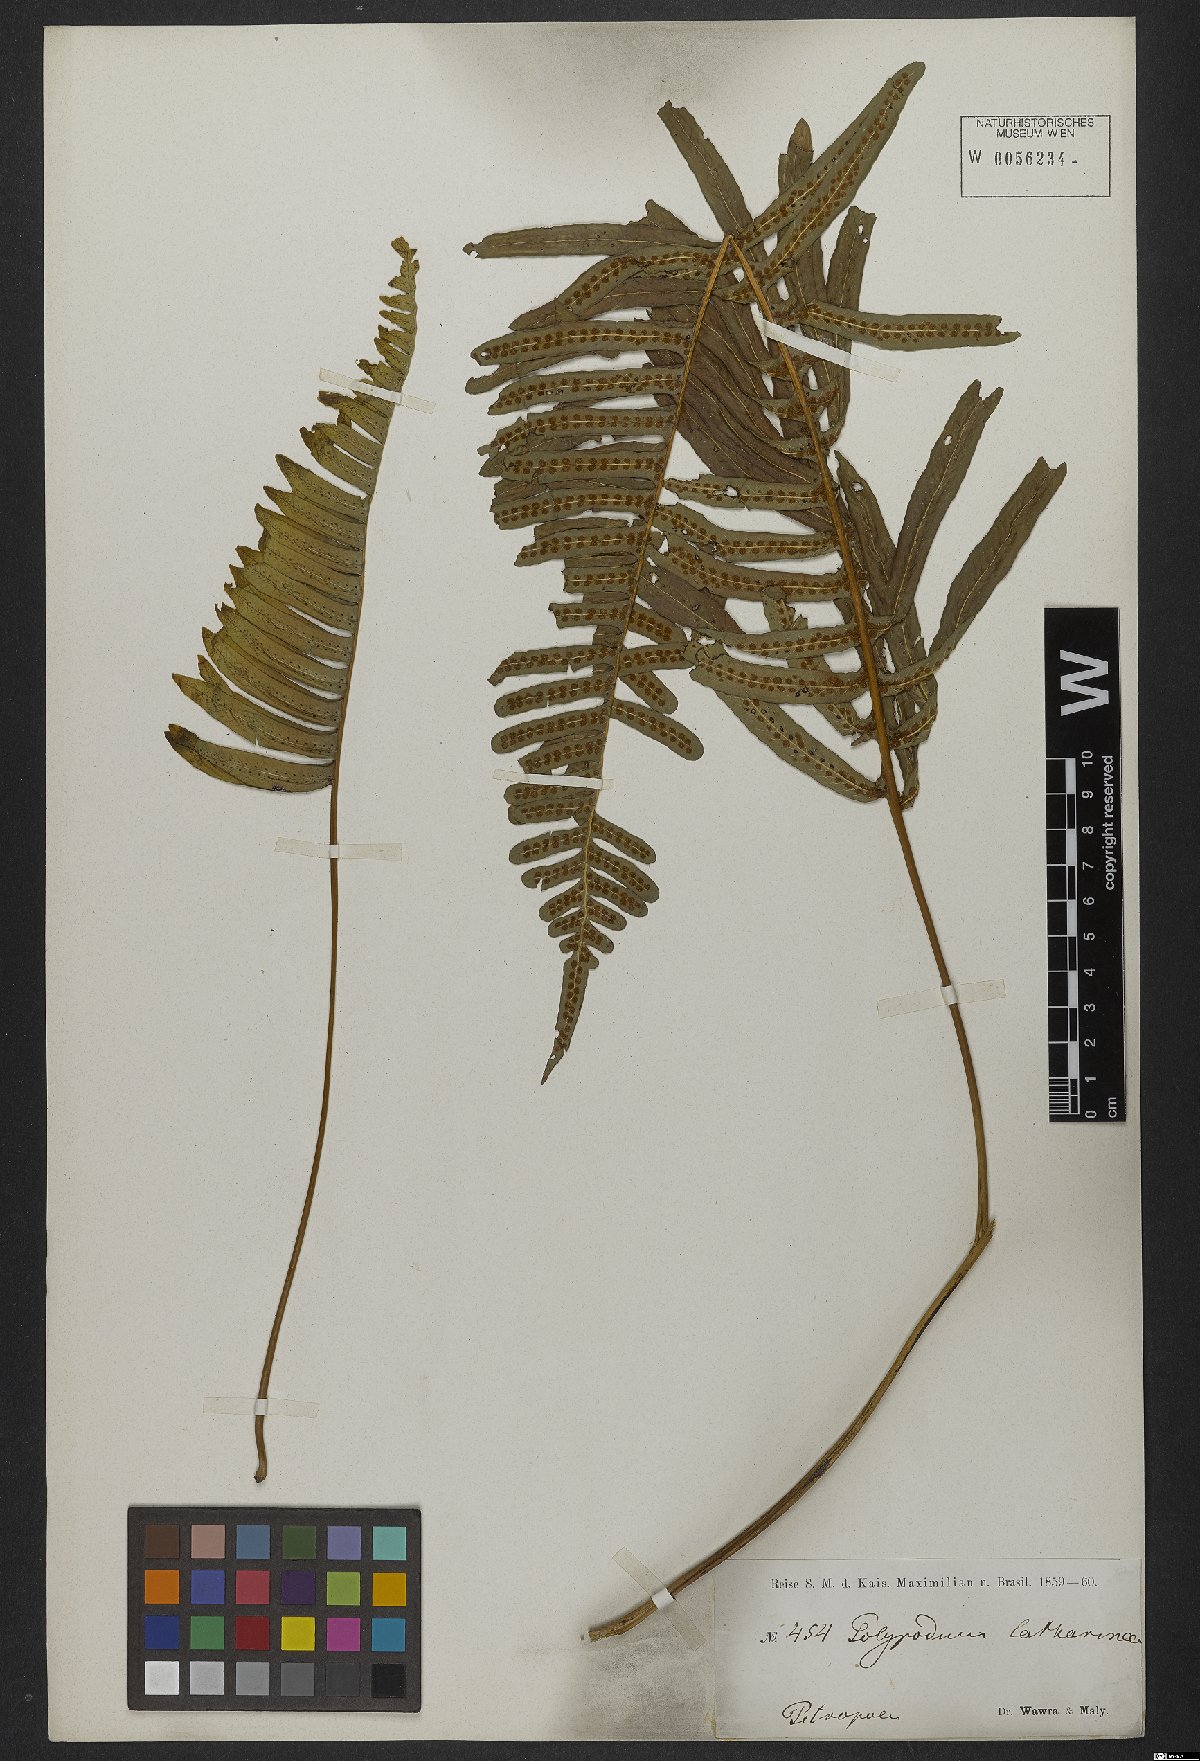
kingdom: Plantae
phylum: Tracheophyta
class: Polypodiopsida
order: Polypodiales
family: Polypodiaceae
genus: Serpocaulon
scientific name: Serpocaulon catharinae
